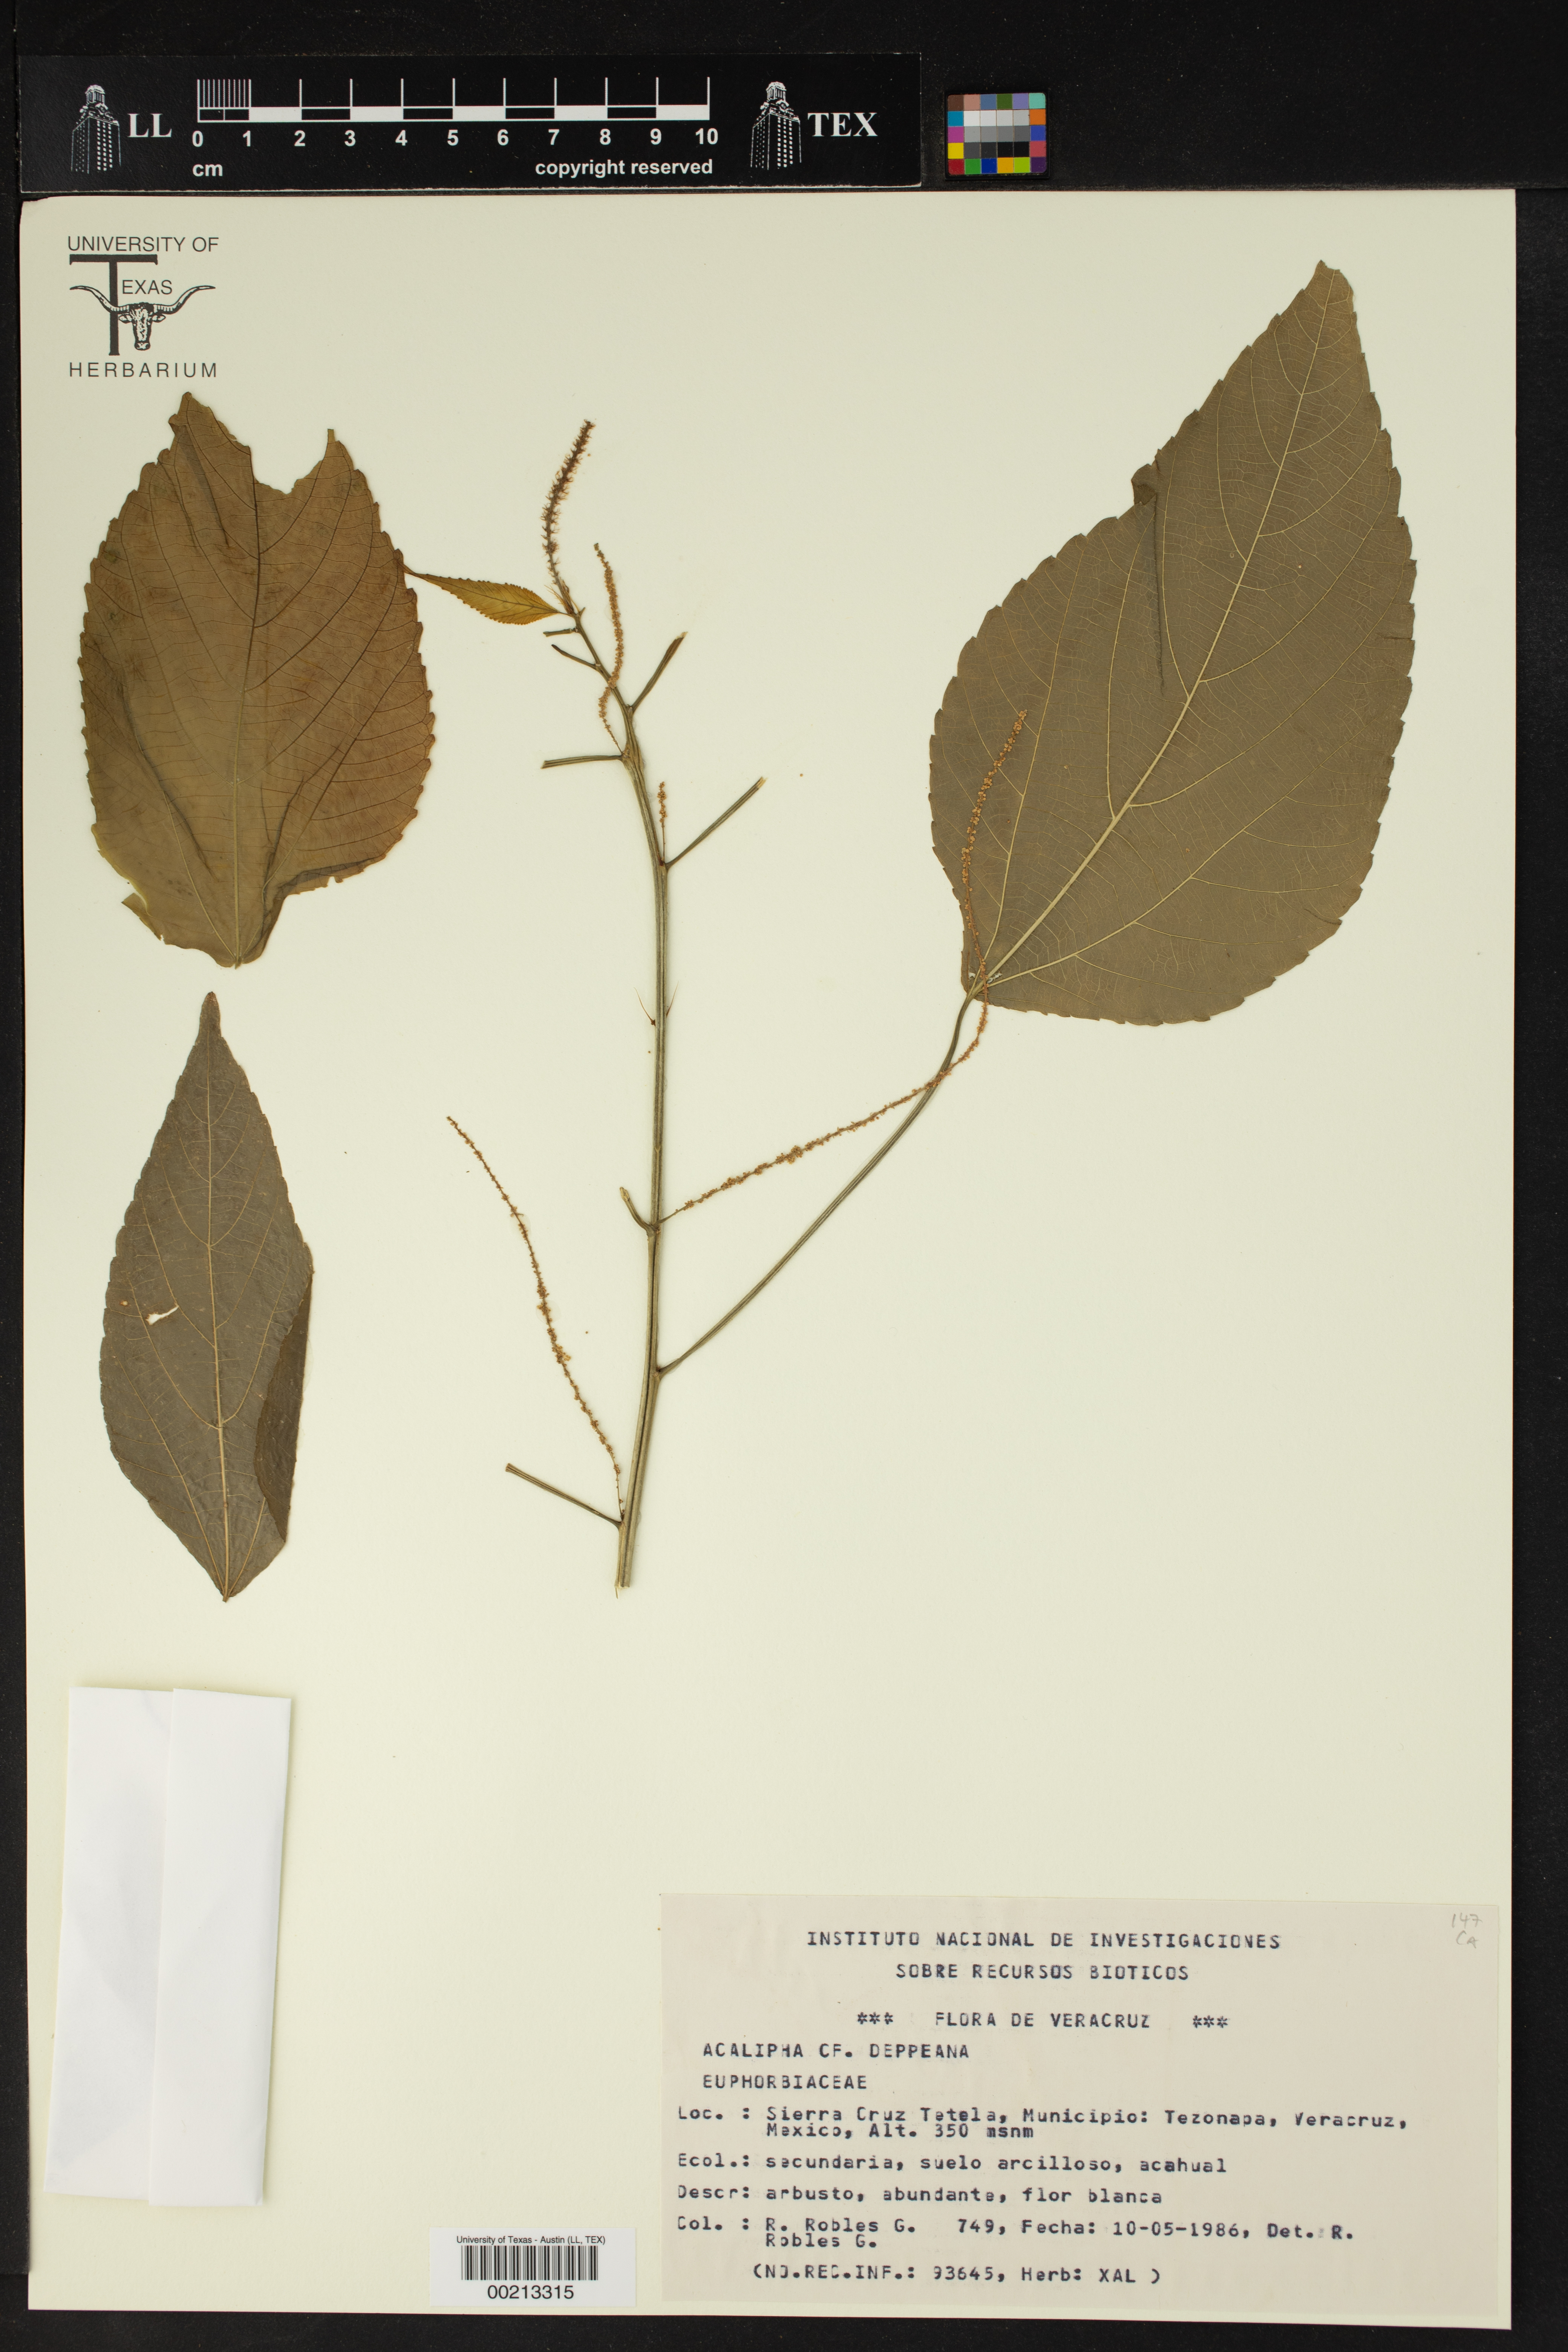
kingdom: Plantae
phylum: Tracheophyta
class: Magnoliopsida
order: Malpighiales
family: Euphorbiaceae
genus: Acalypha
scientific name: Acalypha schiedeana
